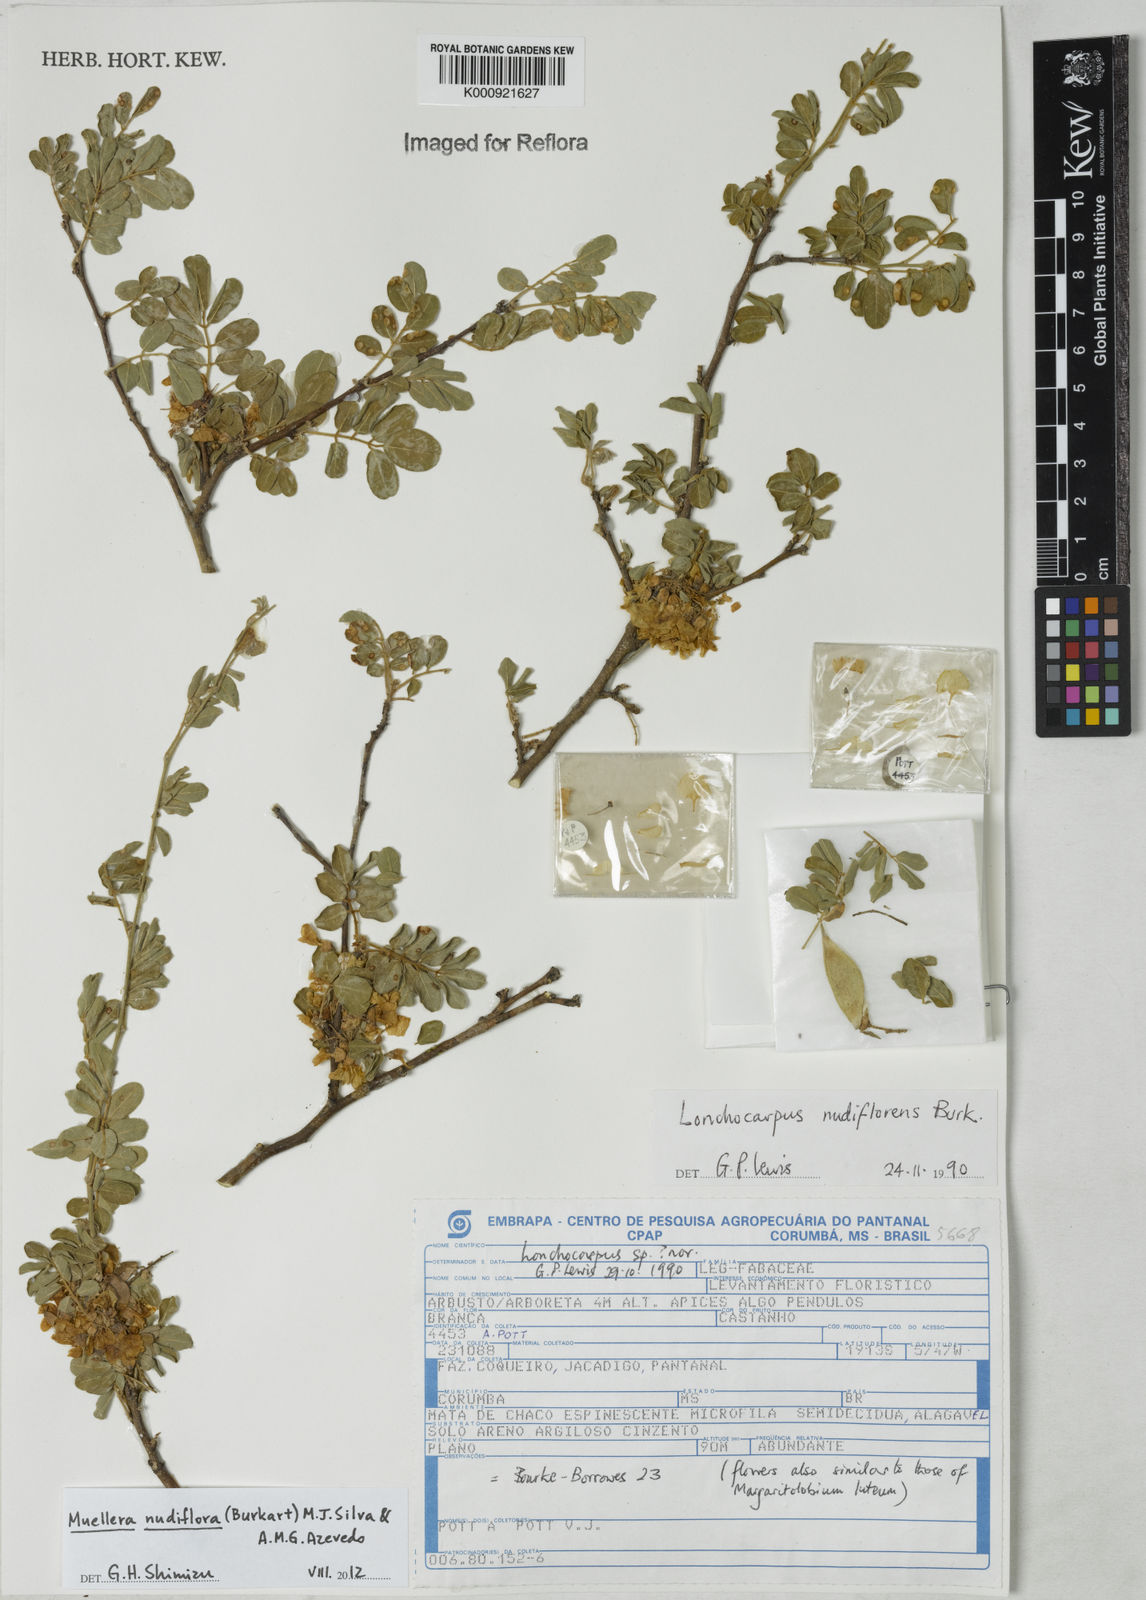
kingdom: Plantae
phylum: Tracheophyta
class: Magnoliopsida
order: Fabales
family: Fabaceae
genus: Muellera
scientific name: Muellera
